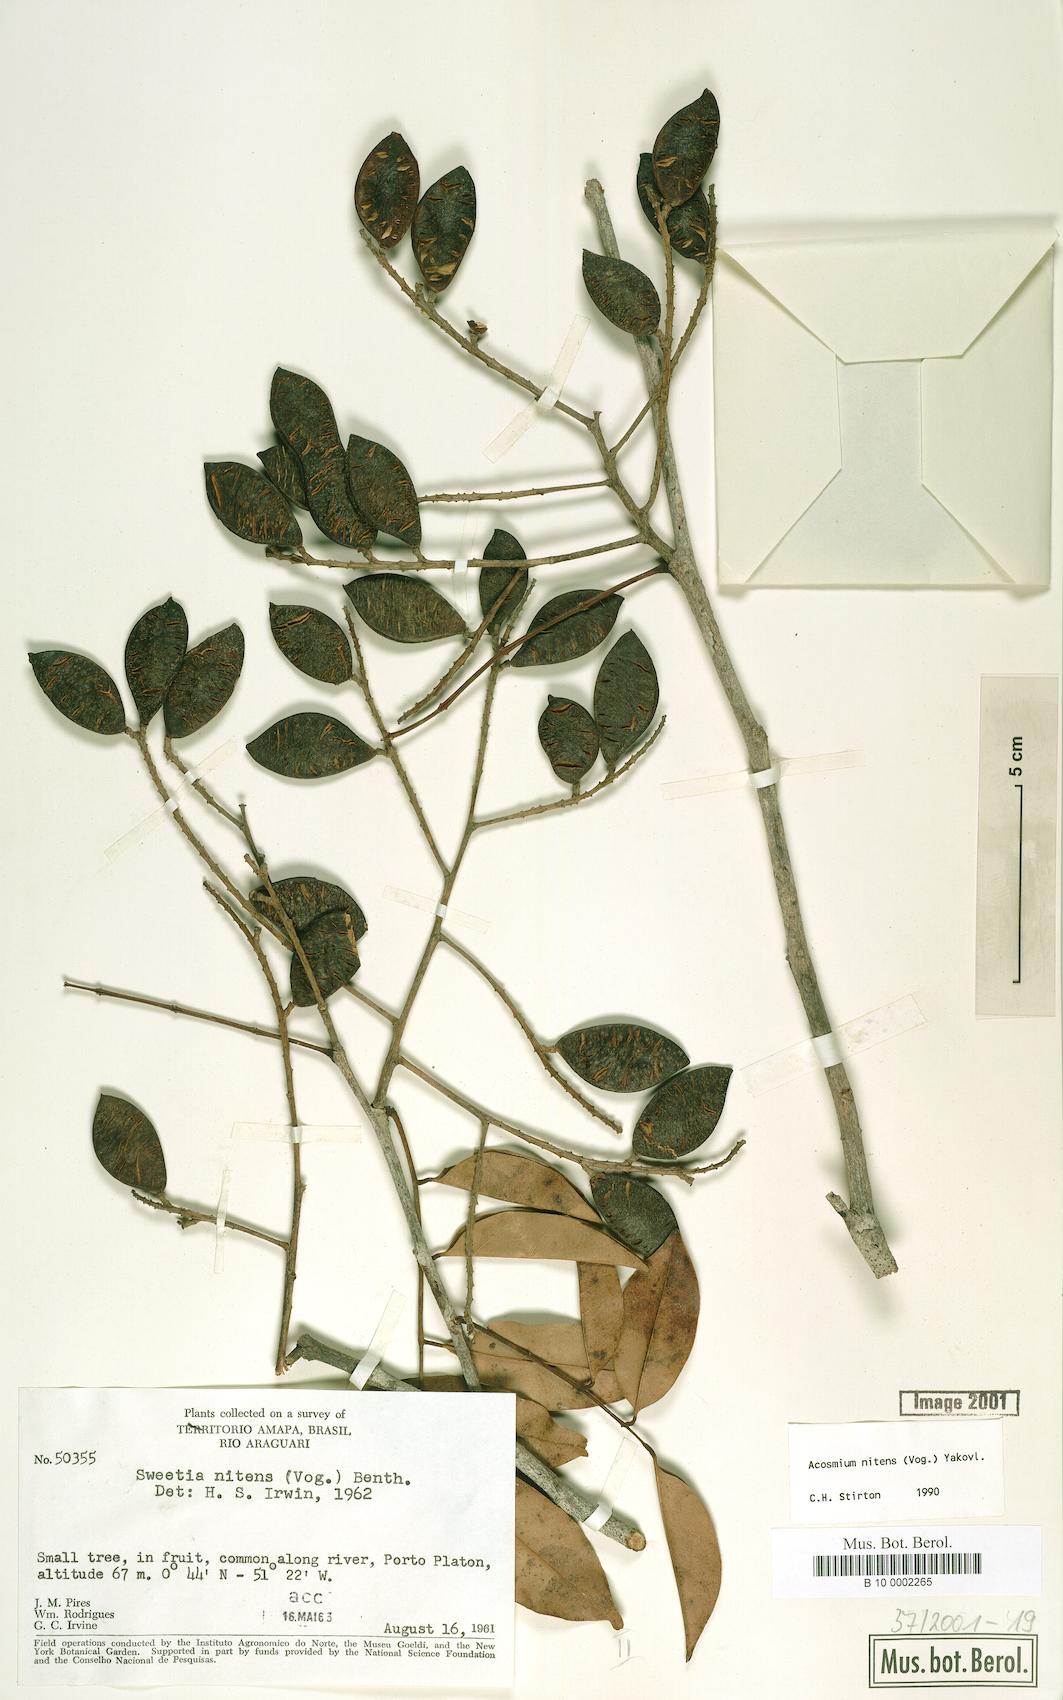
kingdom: Plantae
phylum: Tracheophyta
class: Magnoliopsida
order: Fabales
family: Fabaceae
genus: Leptolobium
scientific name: Leptolobium nitens
